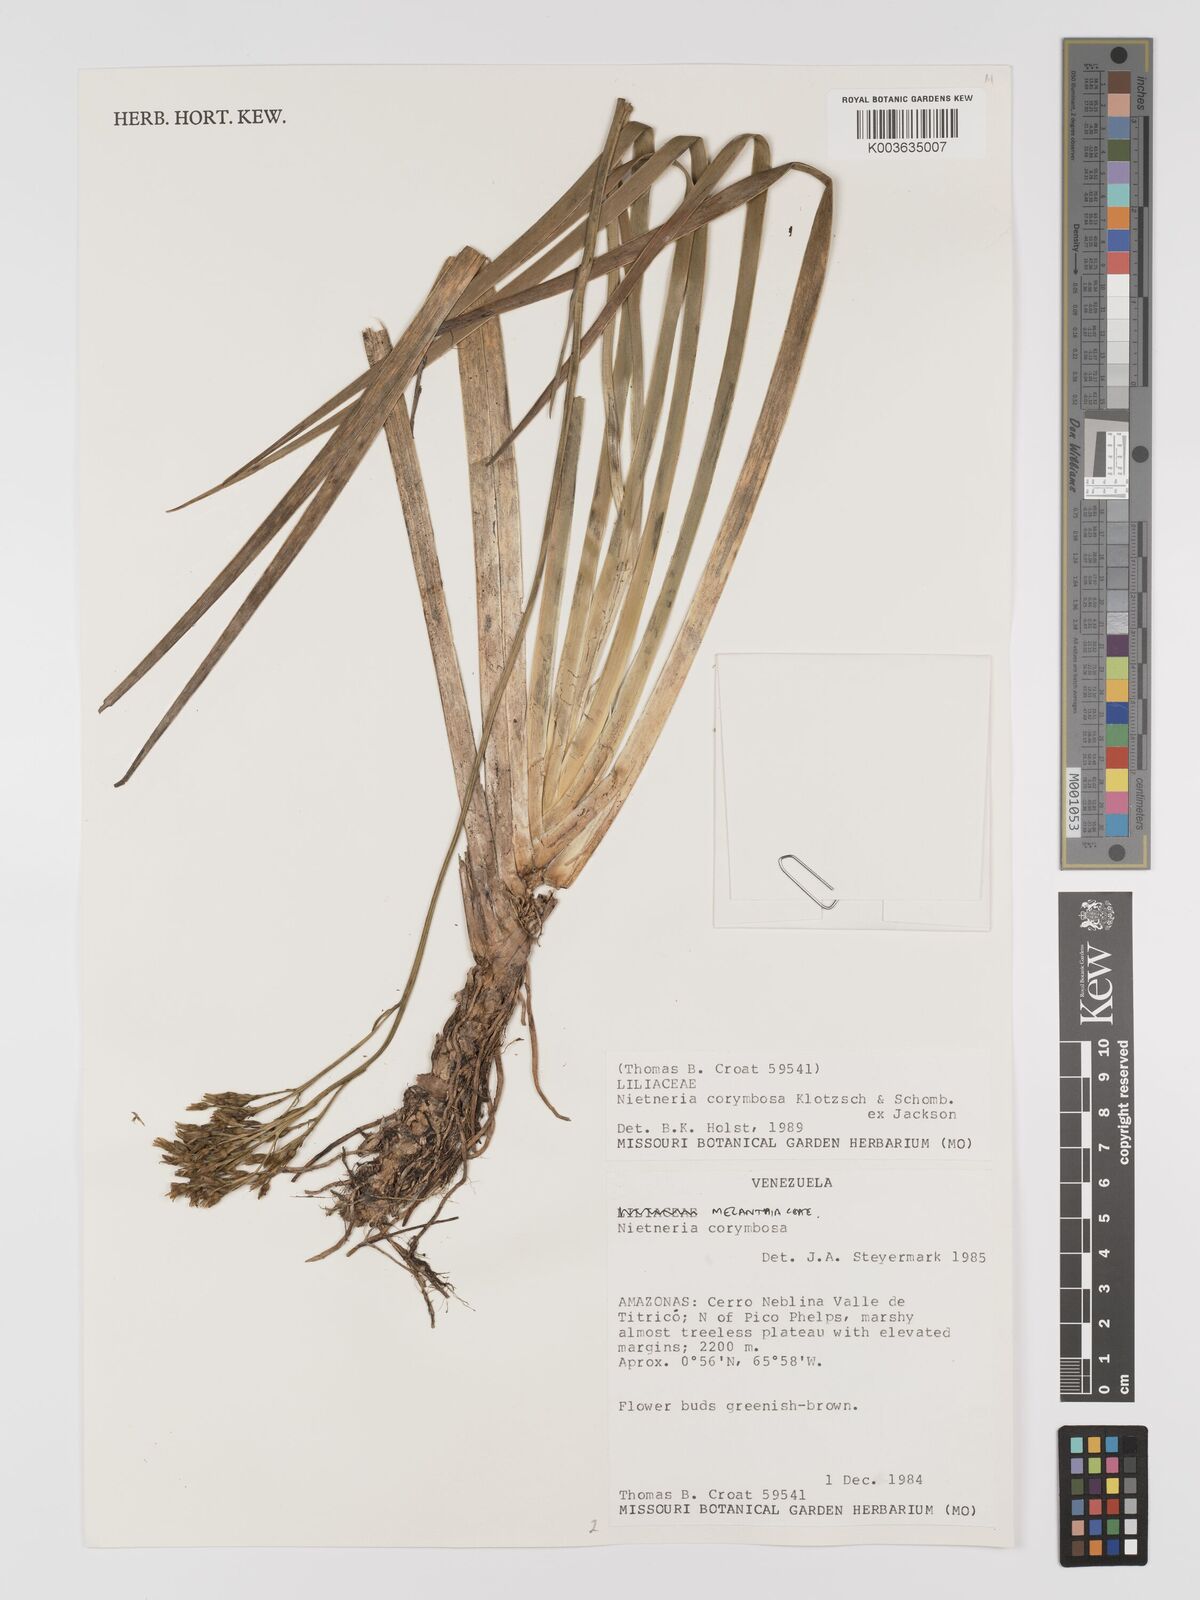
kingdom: Plantae
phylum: Tracheophyta
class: Liliopsida
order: Dioscoreales
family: Nartheciaceae
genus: Nietneria
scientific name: Nietneria corymbosa
